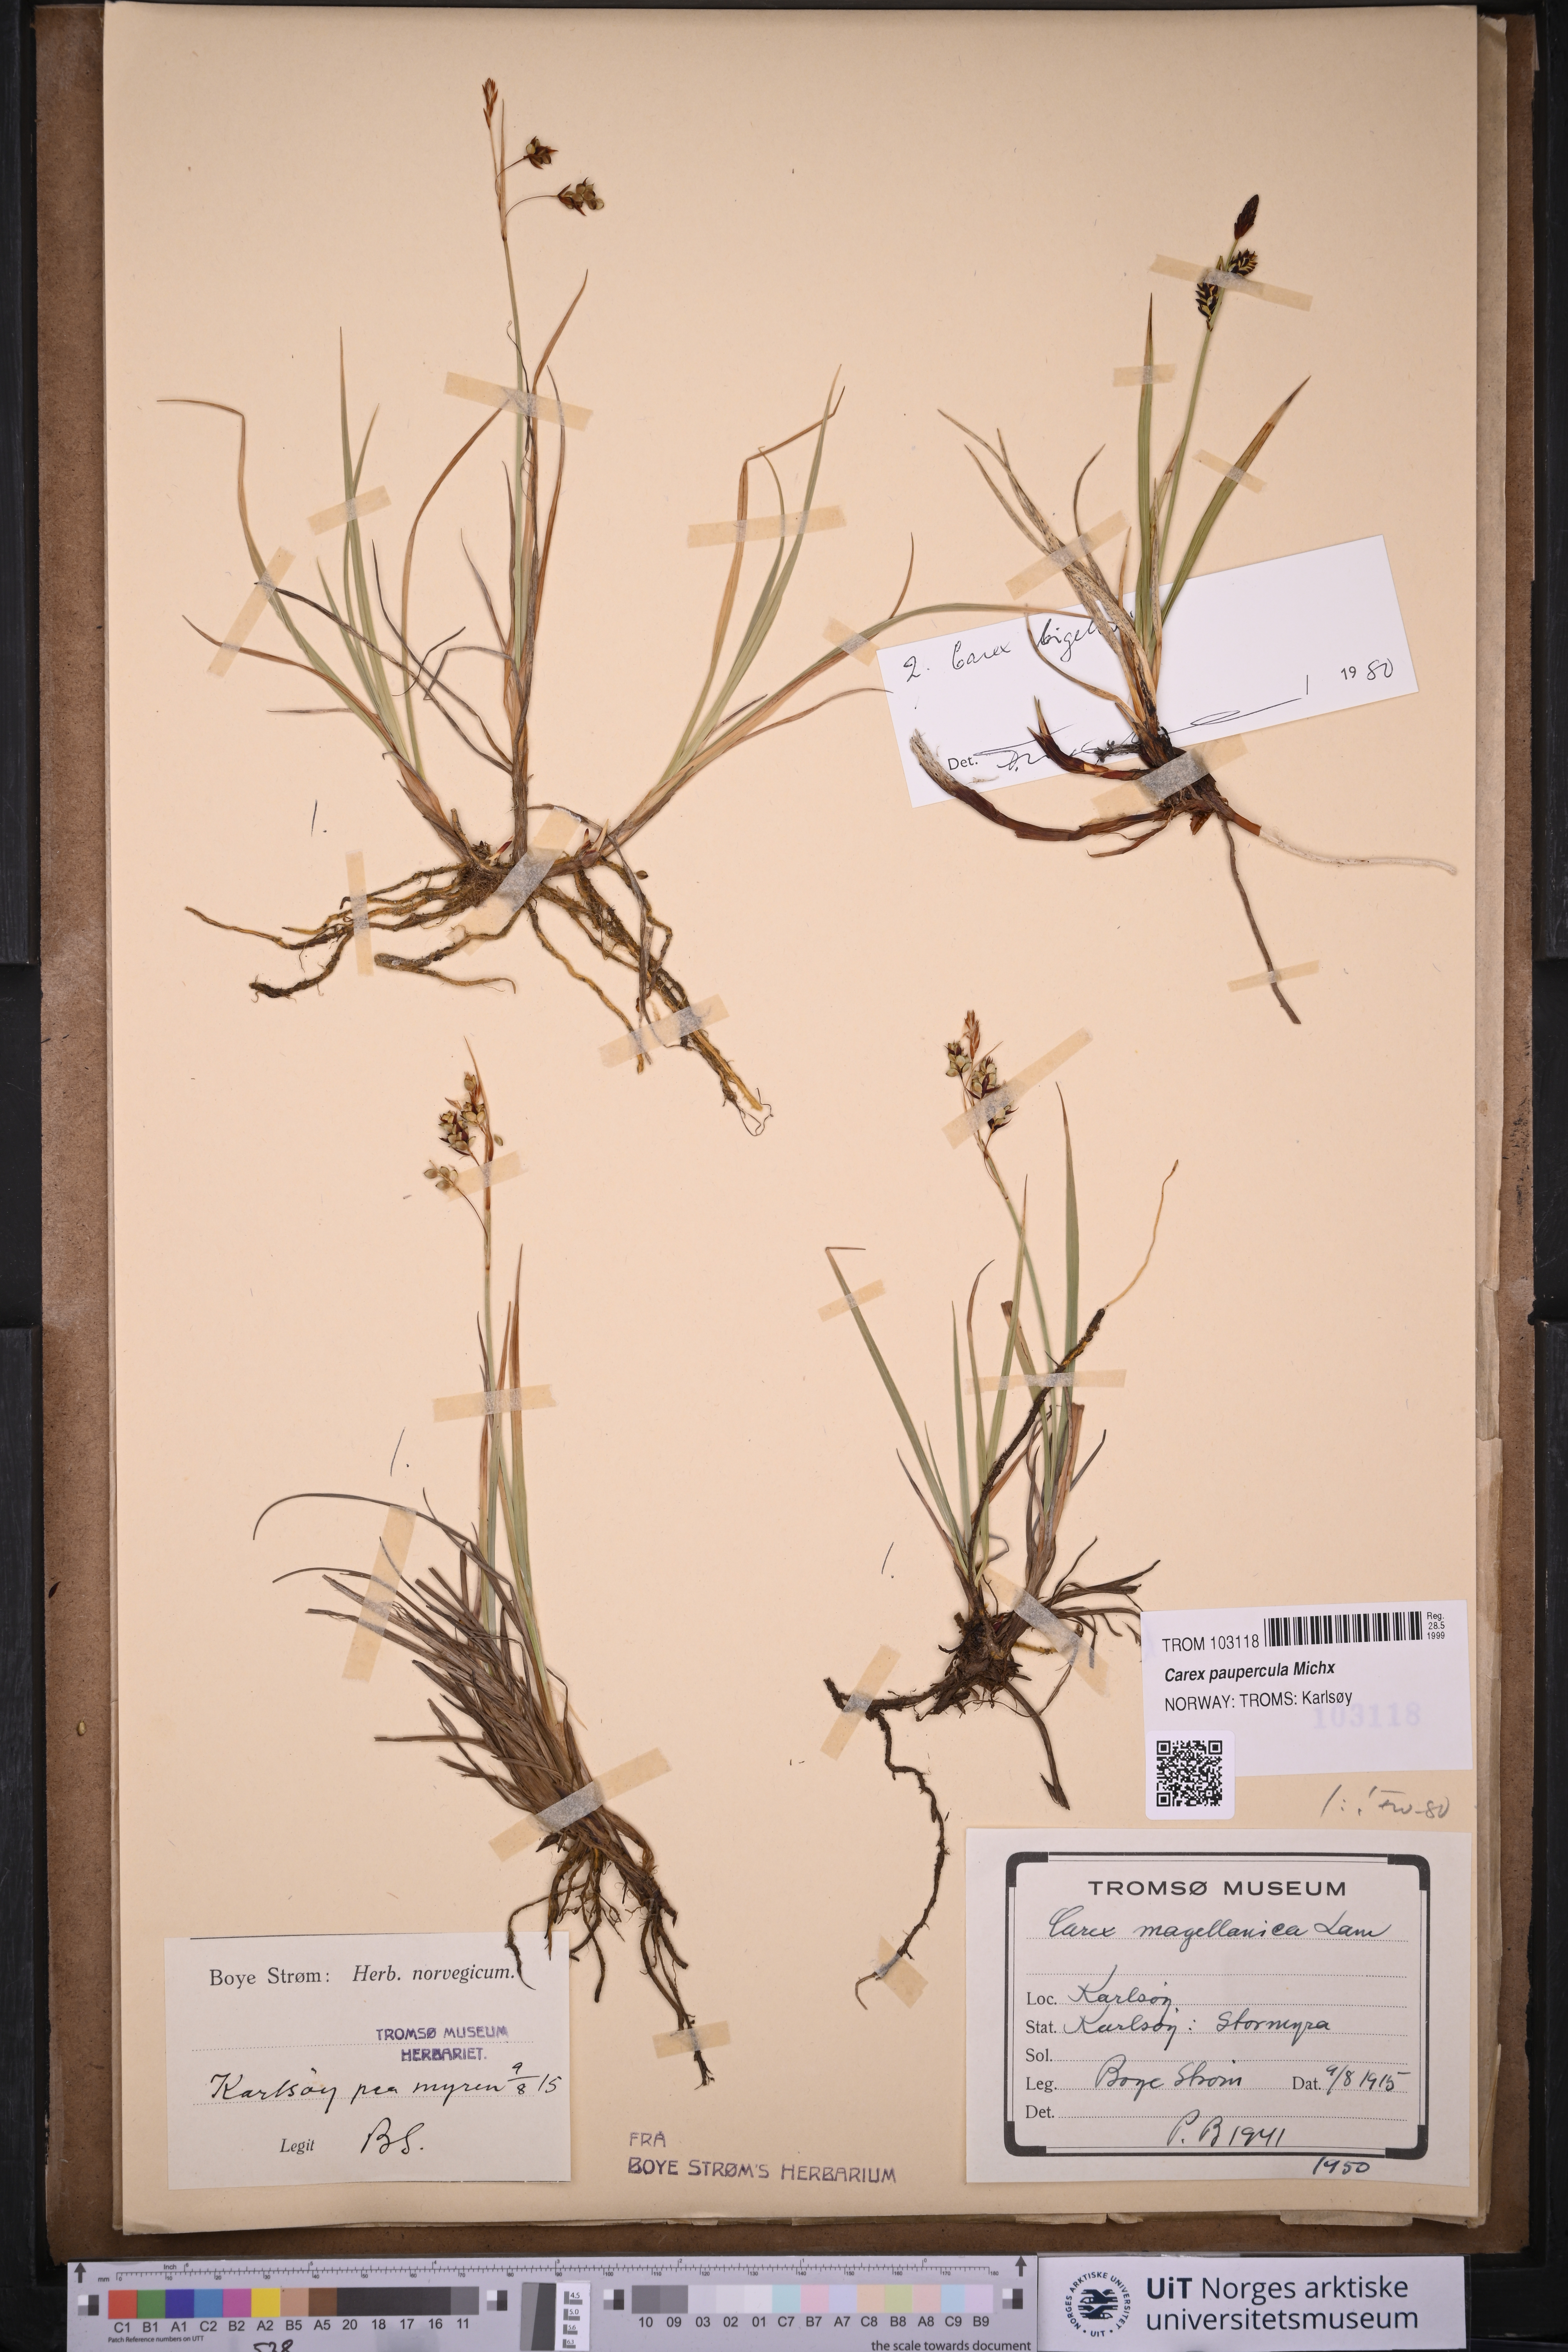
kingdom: Plantae
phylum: Tracheophyta
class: Liliopsida
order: Poales
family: Cyperaceae
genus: Carex
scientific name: Carex magellanica
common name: Bog sedge
